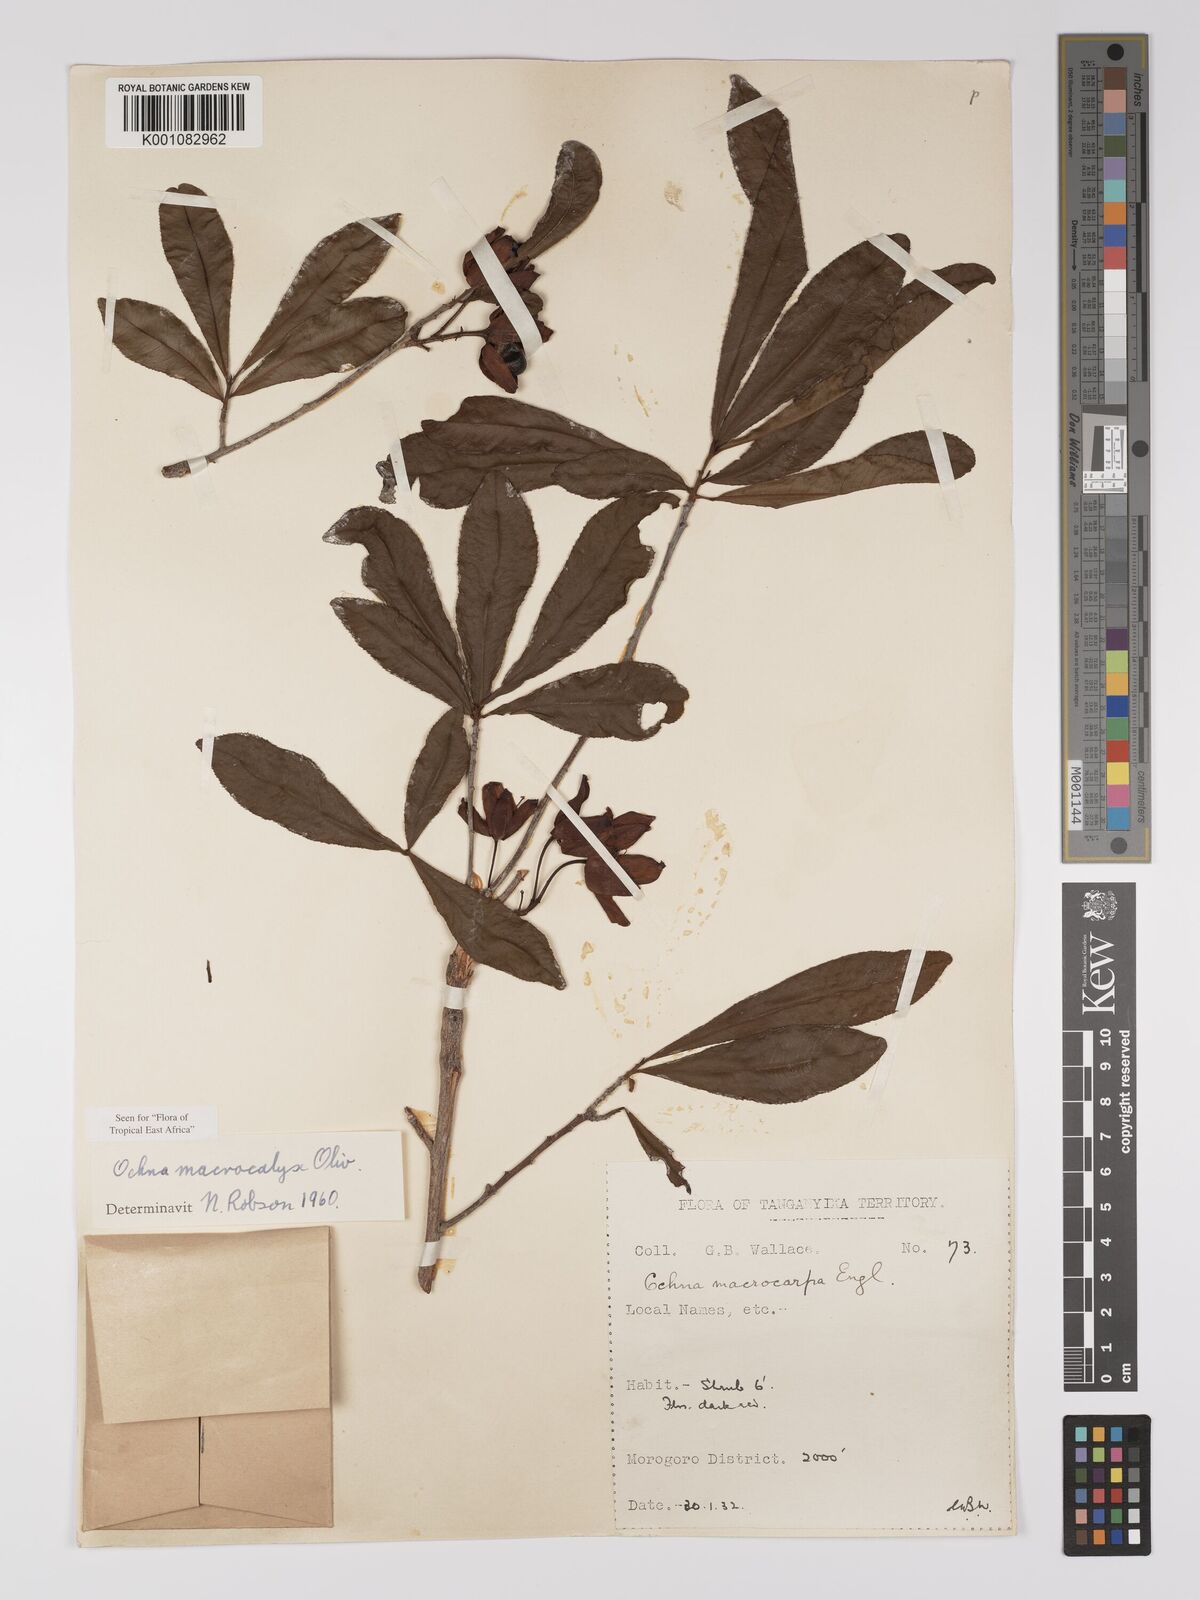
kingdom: Plantae
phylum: Tracheophyta
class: Magnoliopsida
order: Malpighiales
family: Ochnaceae
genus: Ochna
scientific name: Ochna macrocalyx
